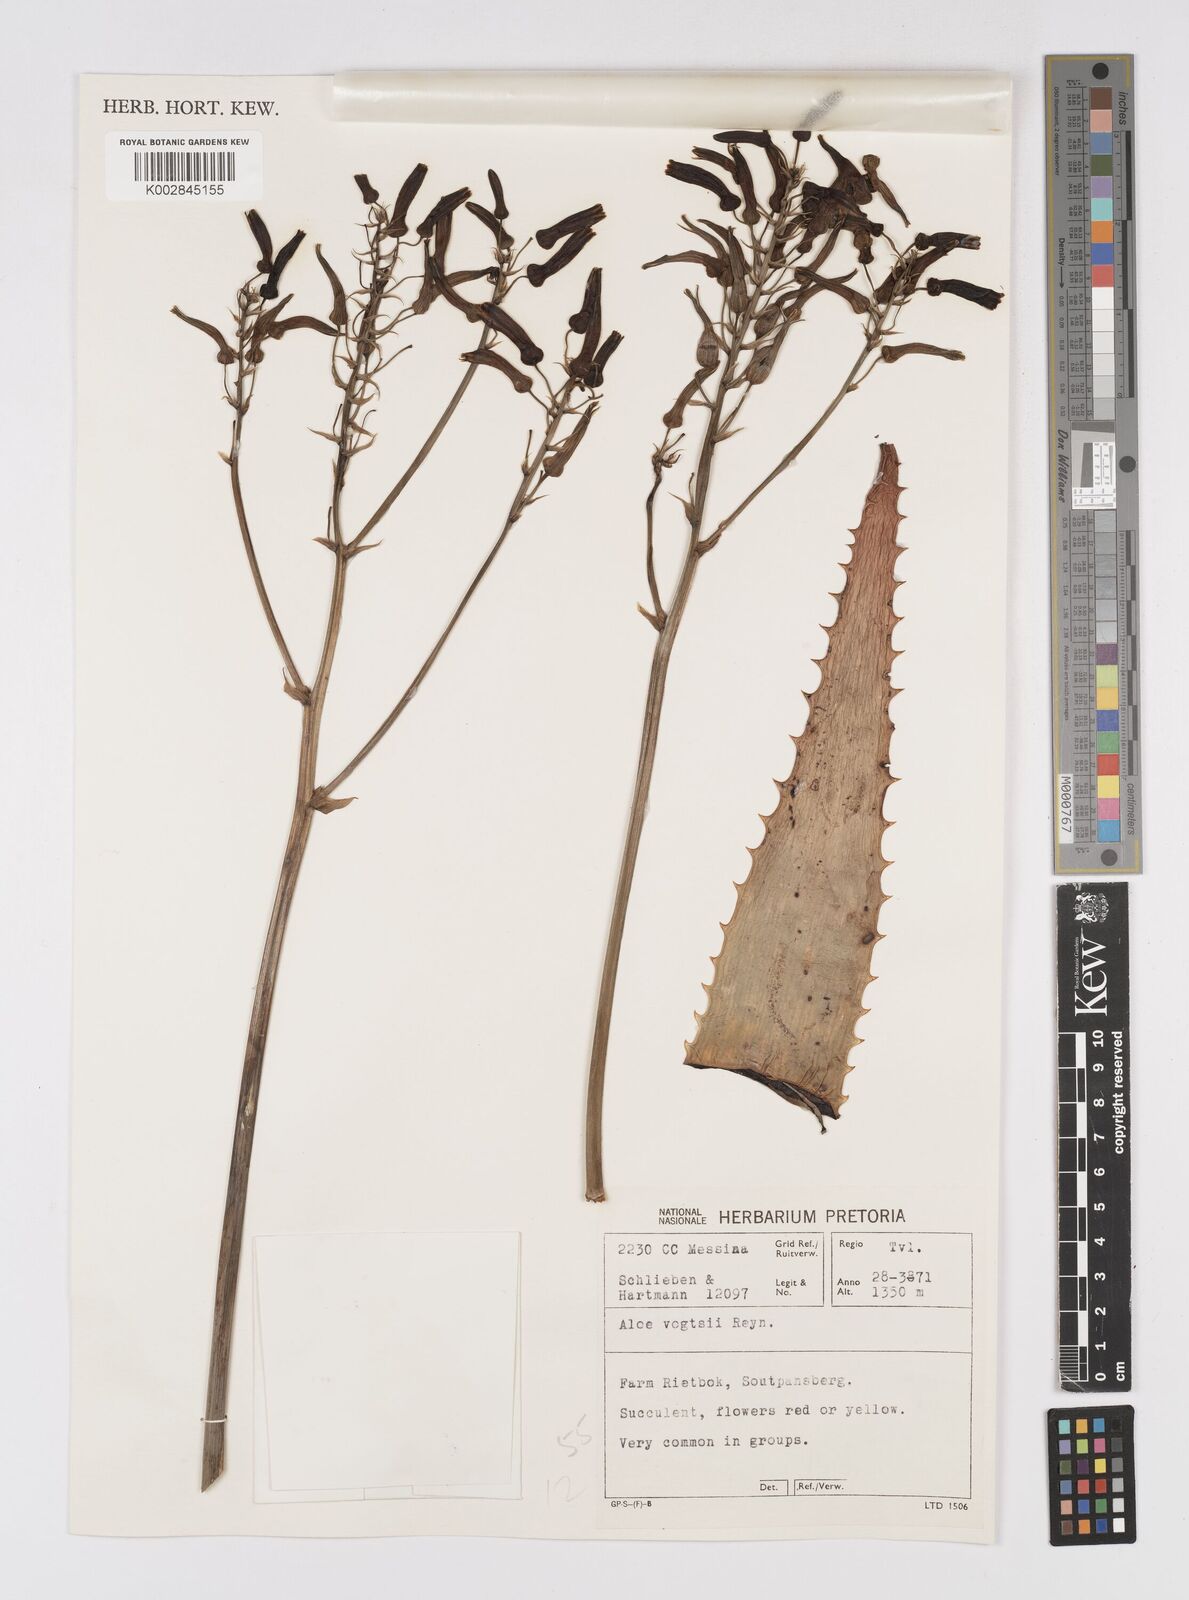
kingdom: Plantae
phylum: Tracheophyta
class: Liliopsida
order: Asparagales
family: Asphodelaceae
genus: Aloe
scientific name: Aloe vogtsii
